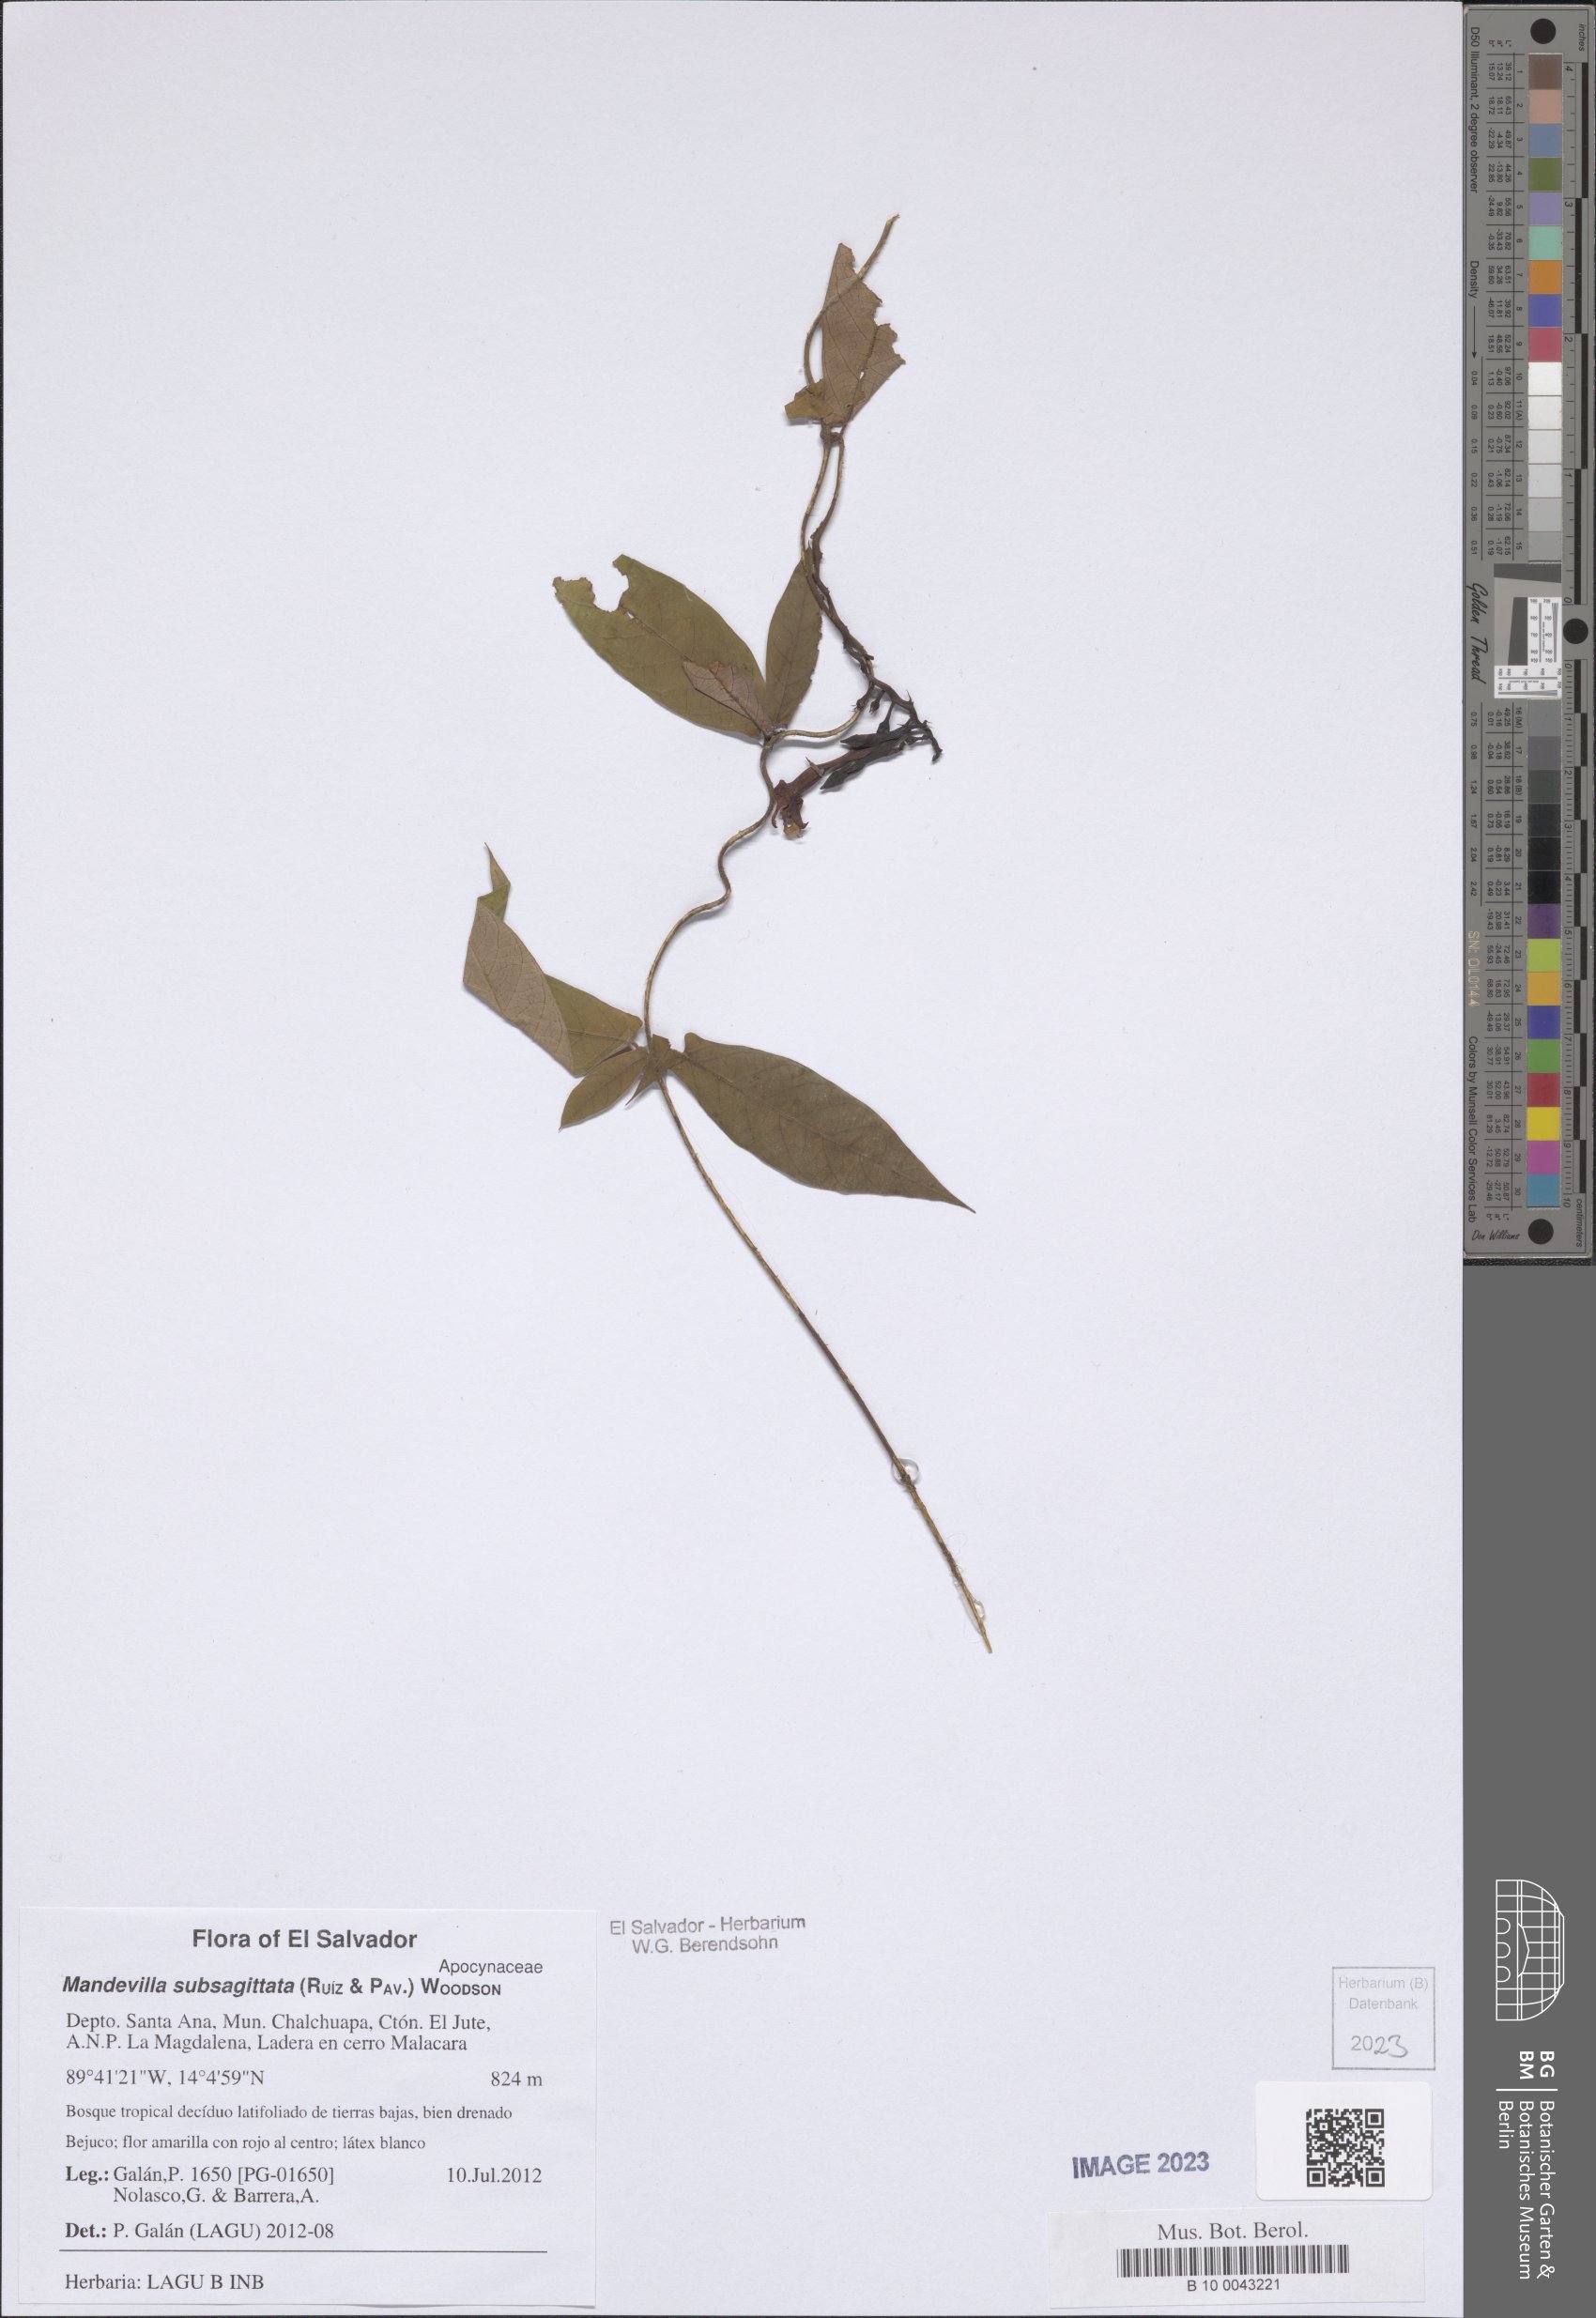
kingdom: Plantae
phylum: Tracheophyta
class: Magnoliopsida
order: Gentianales
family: Apocynaceae
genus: Mandevilla
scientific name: Mandevilla subsagittata
